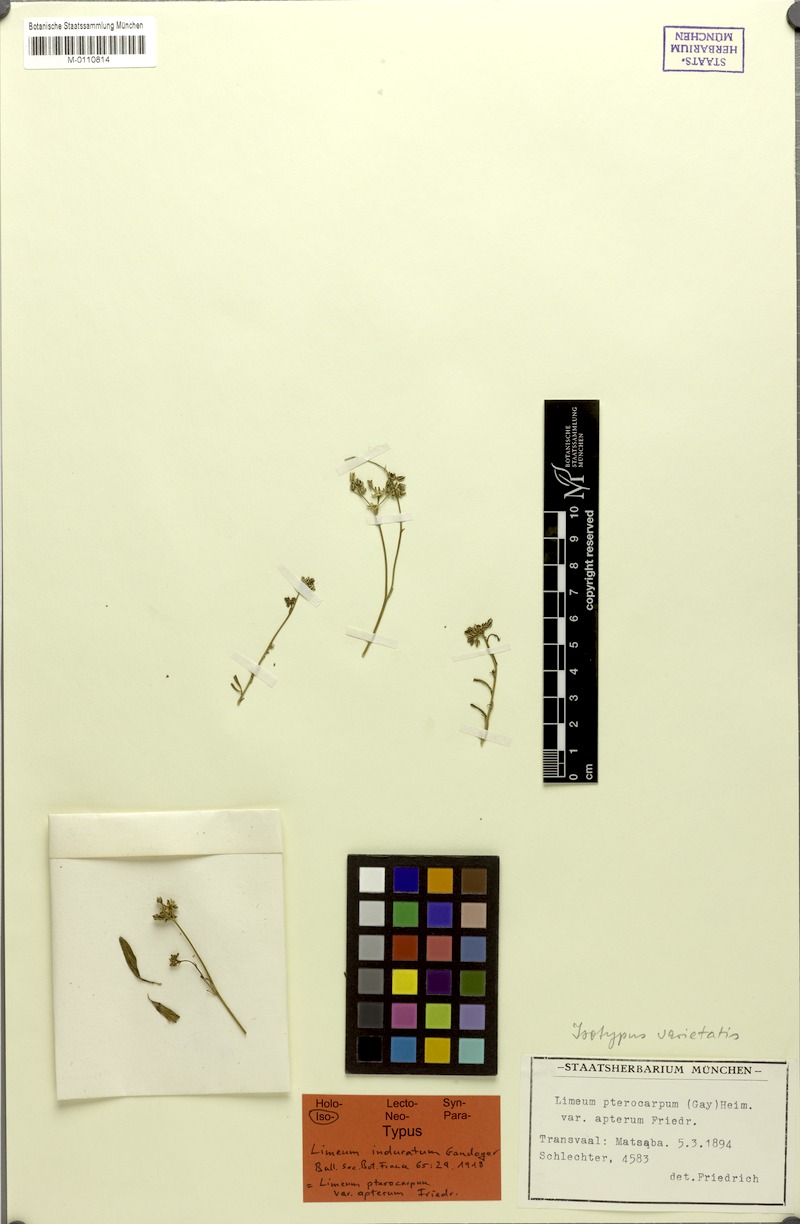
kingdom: Plantae
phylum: Tracheophyta
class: Magnoliopsida
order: Caryophyllales
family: Limeaceae
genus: Limeum
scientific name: Limeum induratum
